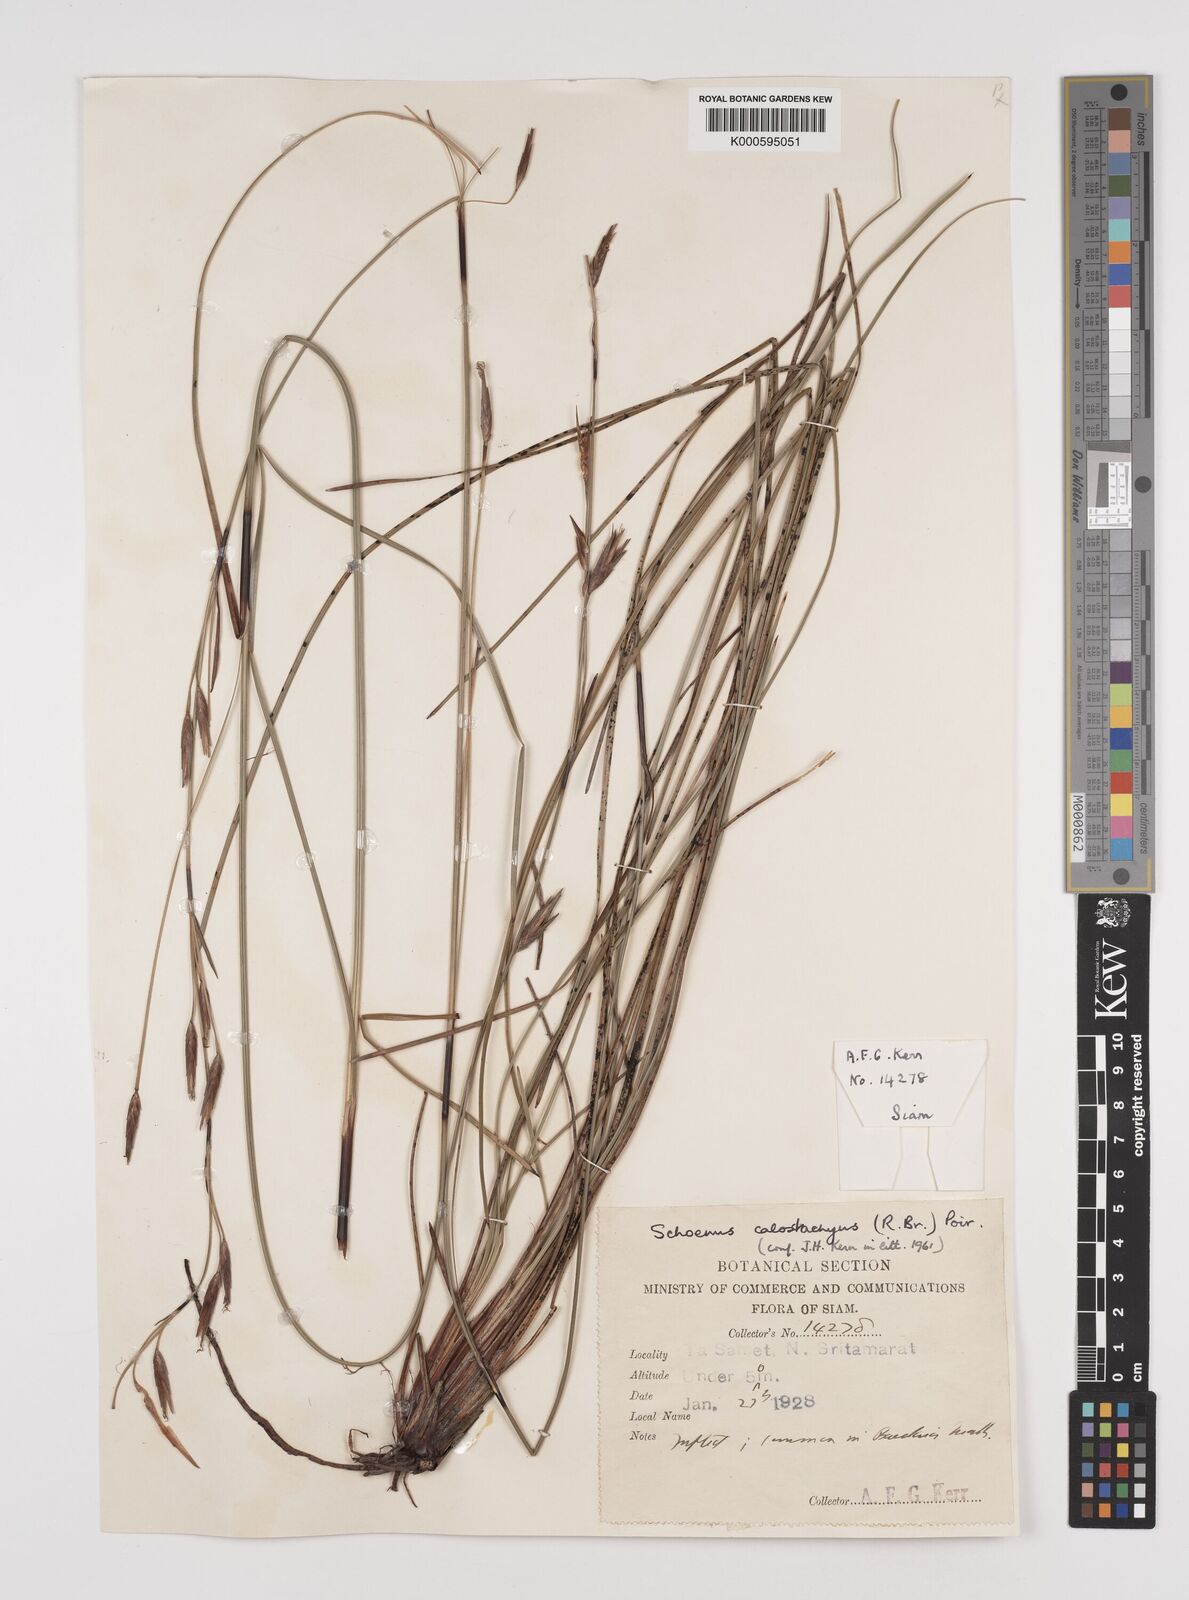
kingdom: Plantae
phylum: Tracheophyta
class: Liliopsida
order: Poales
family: Cyperaceae
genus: Schoenus
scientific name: Schoenus
